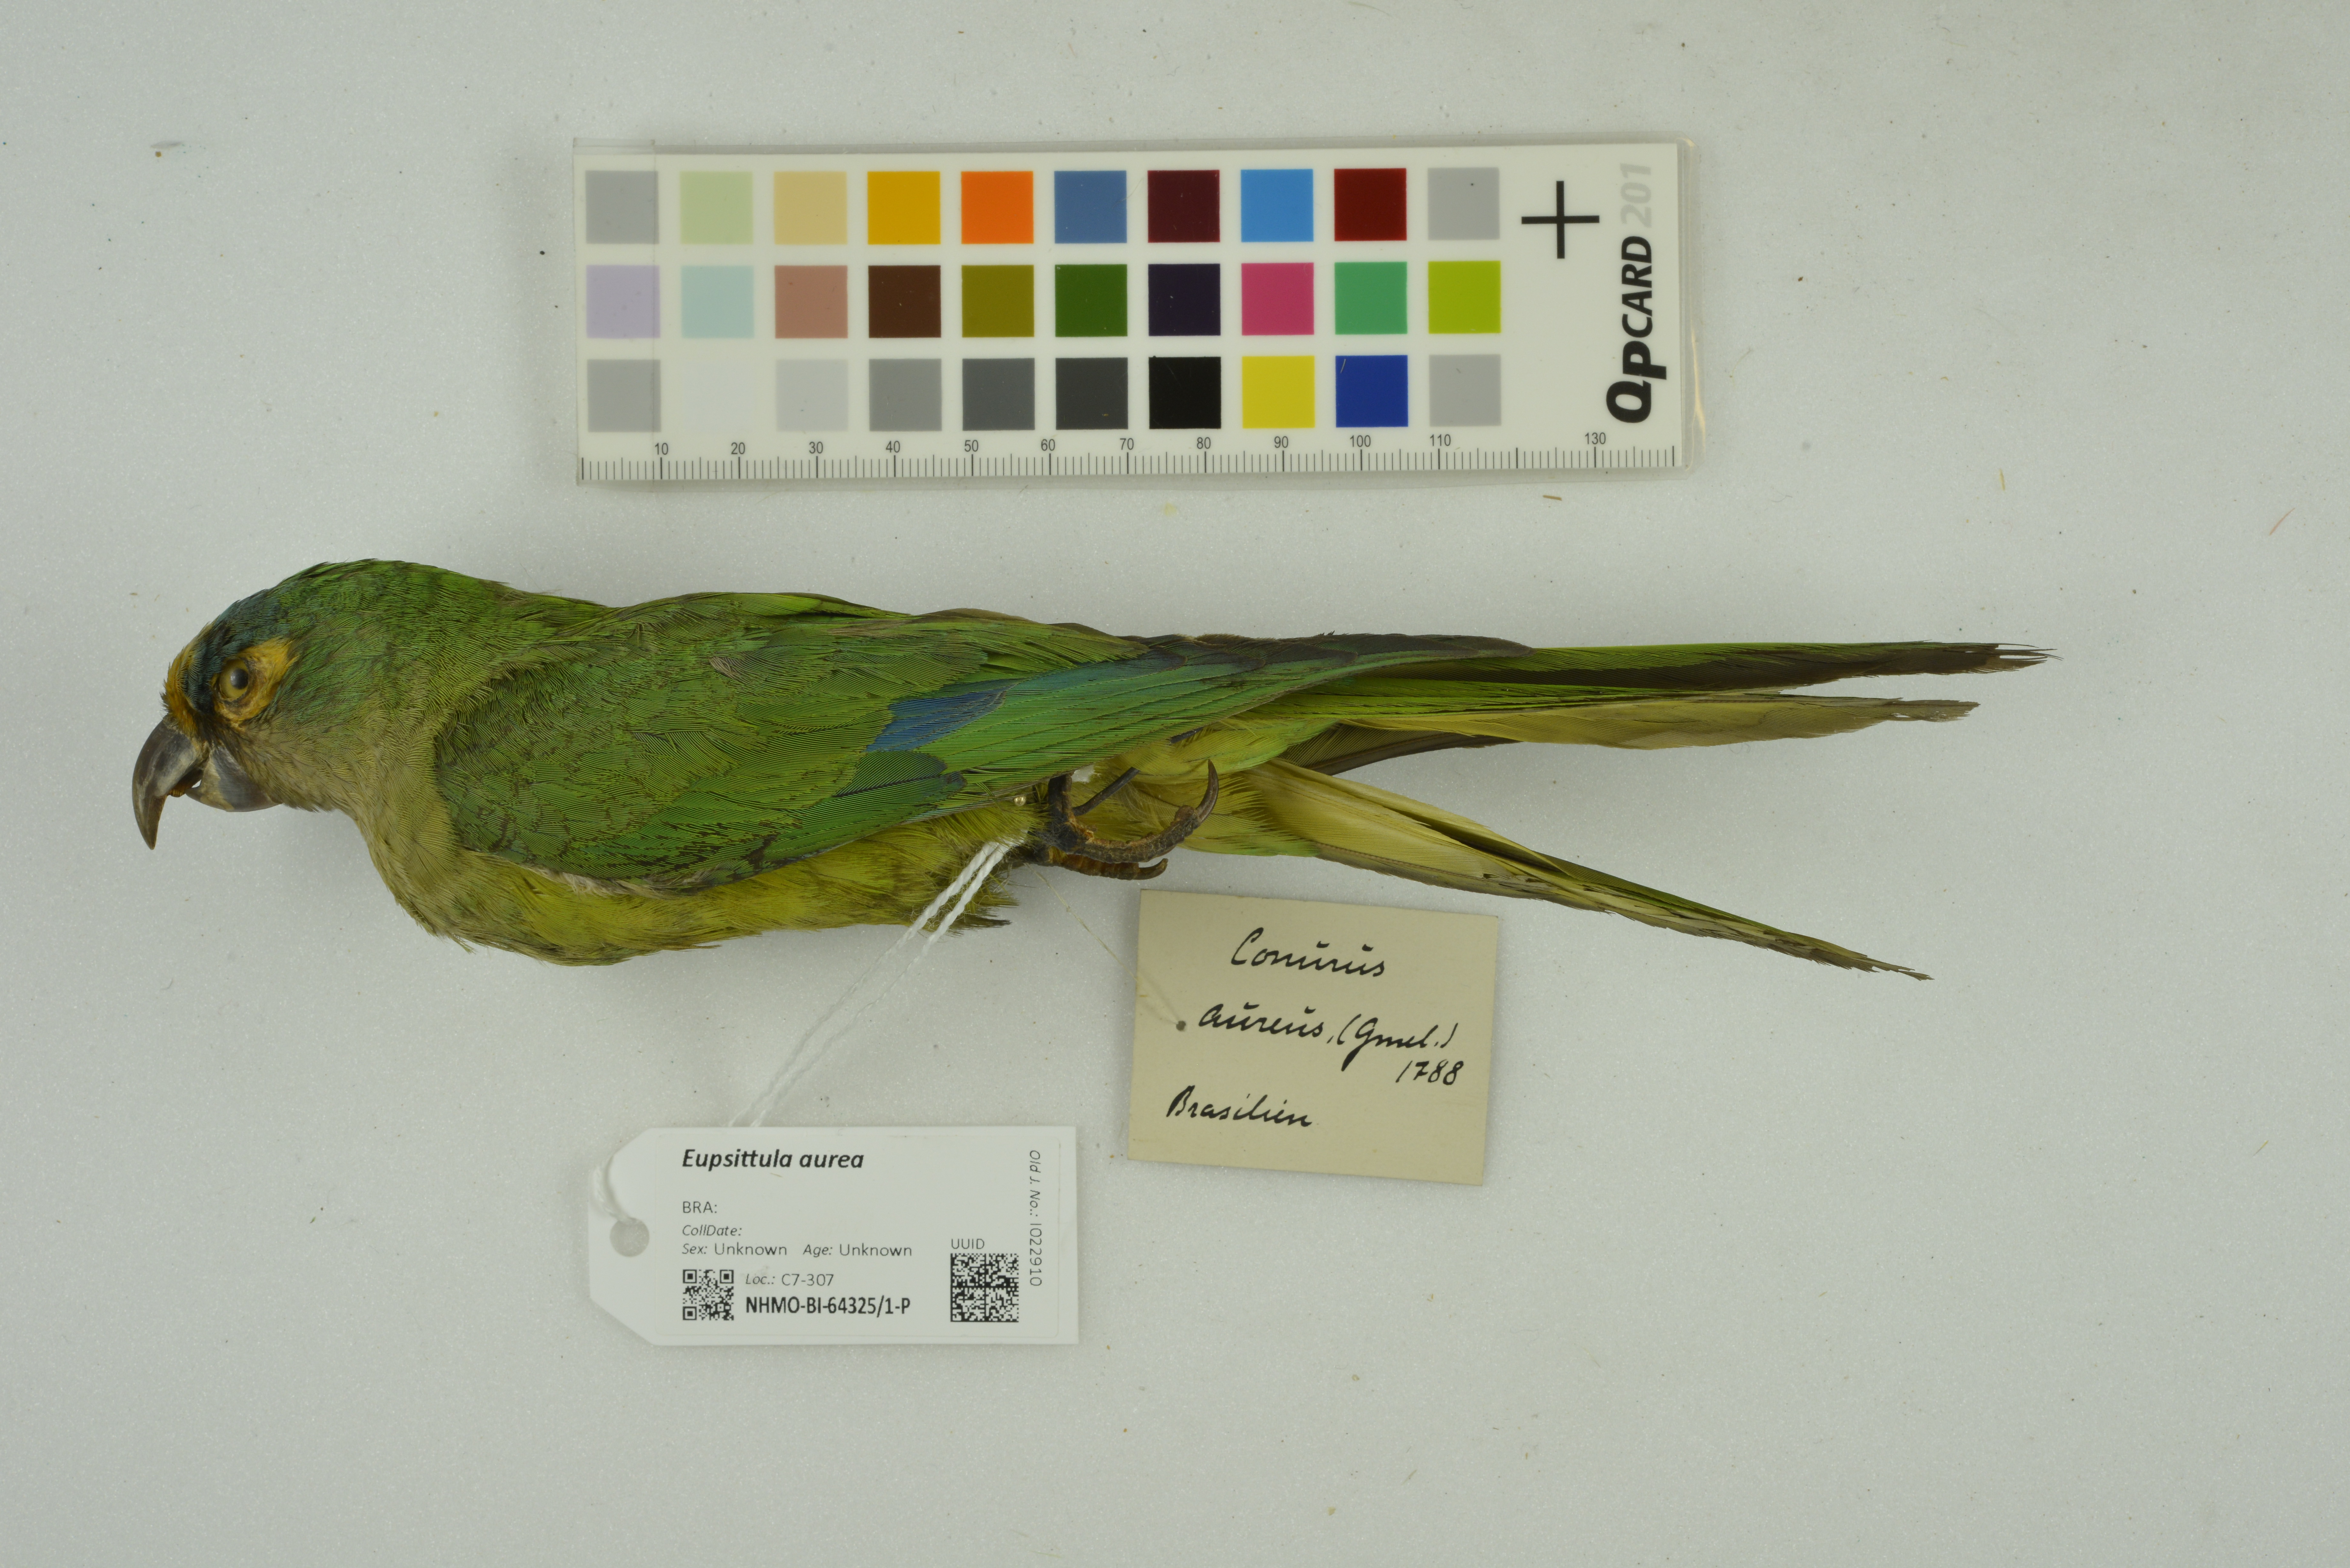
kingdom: Animalia
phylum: Chordata
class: Aves
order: Psittaciformes
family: Psittacidae
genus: Aratinga
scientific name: Aratinga aurea
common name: Peach-fronted parakeet
